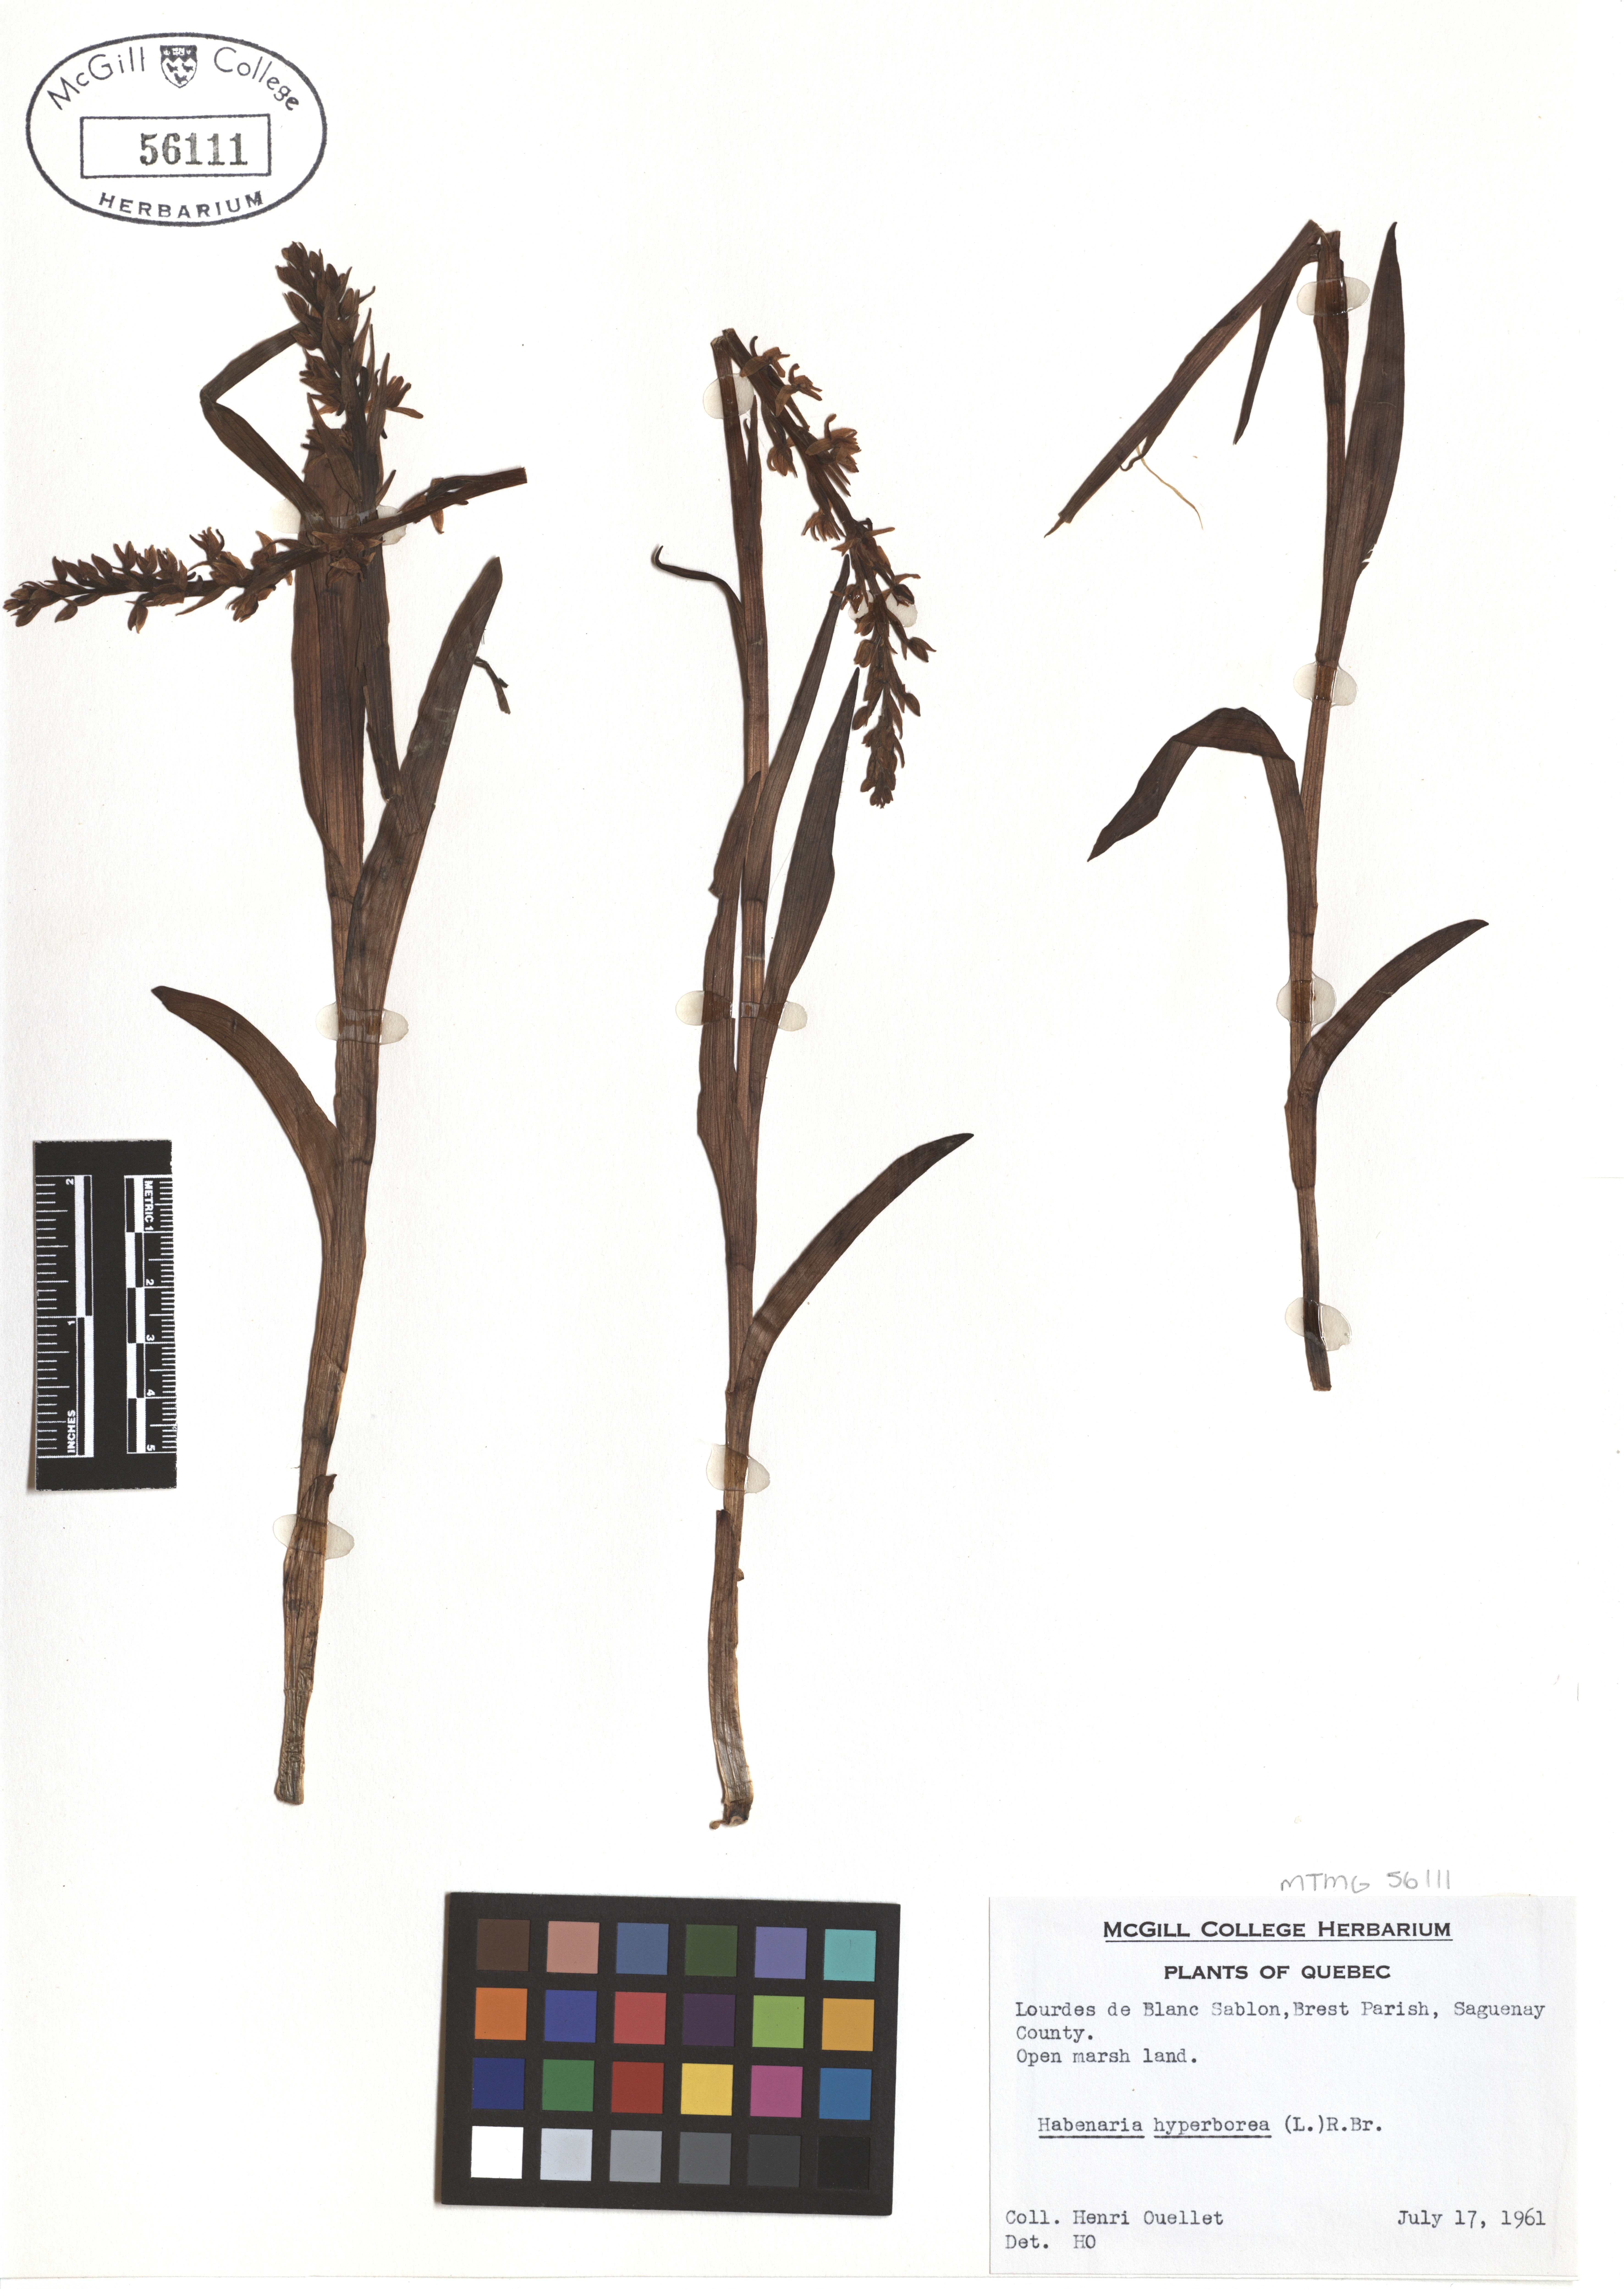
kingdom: Plantae
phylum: Tracheophyta
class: Liliopsida
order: Asparagales
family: Orchidaceae
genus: Platanthera
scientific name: Platanthera hyperborea
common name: Northern green orchid
